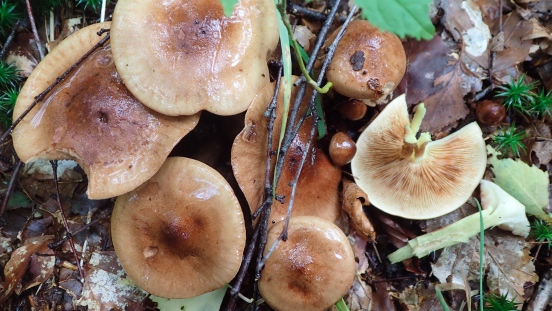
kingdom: Fungi
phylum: Basidiomycota
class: Agaricomycetes
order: Agaricales
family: Tricholomataceae
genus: Tricholoma
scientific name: Tricholoma fulvum
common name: birke-ridderhat
